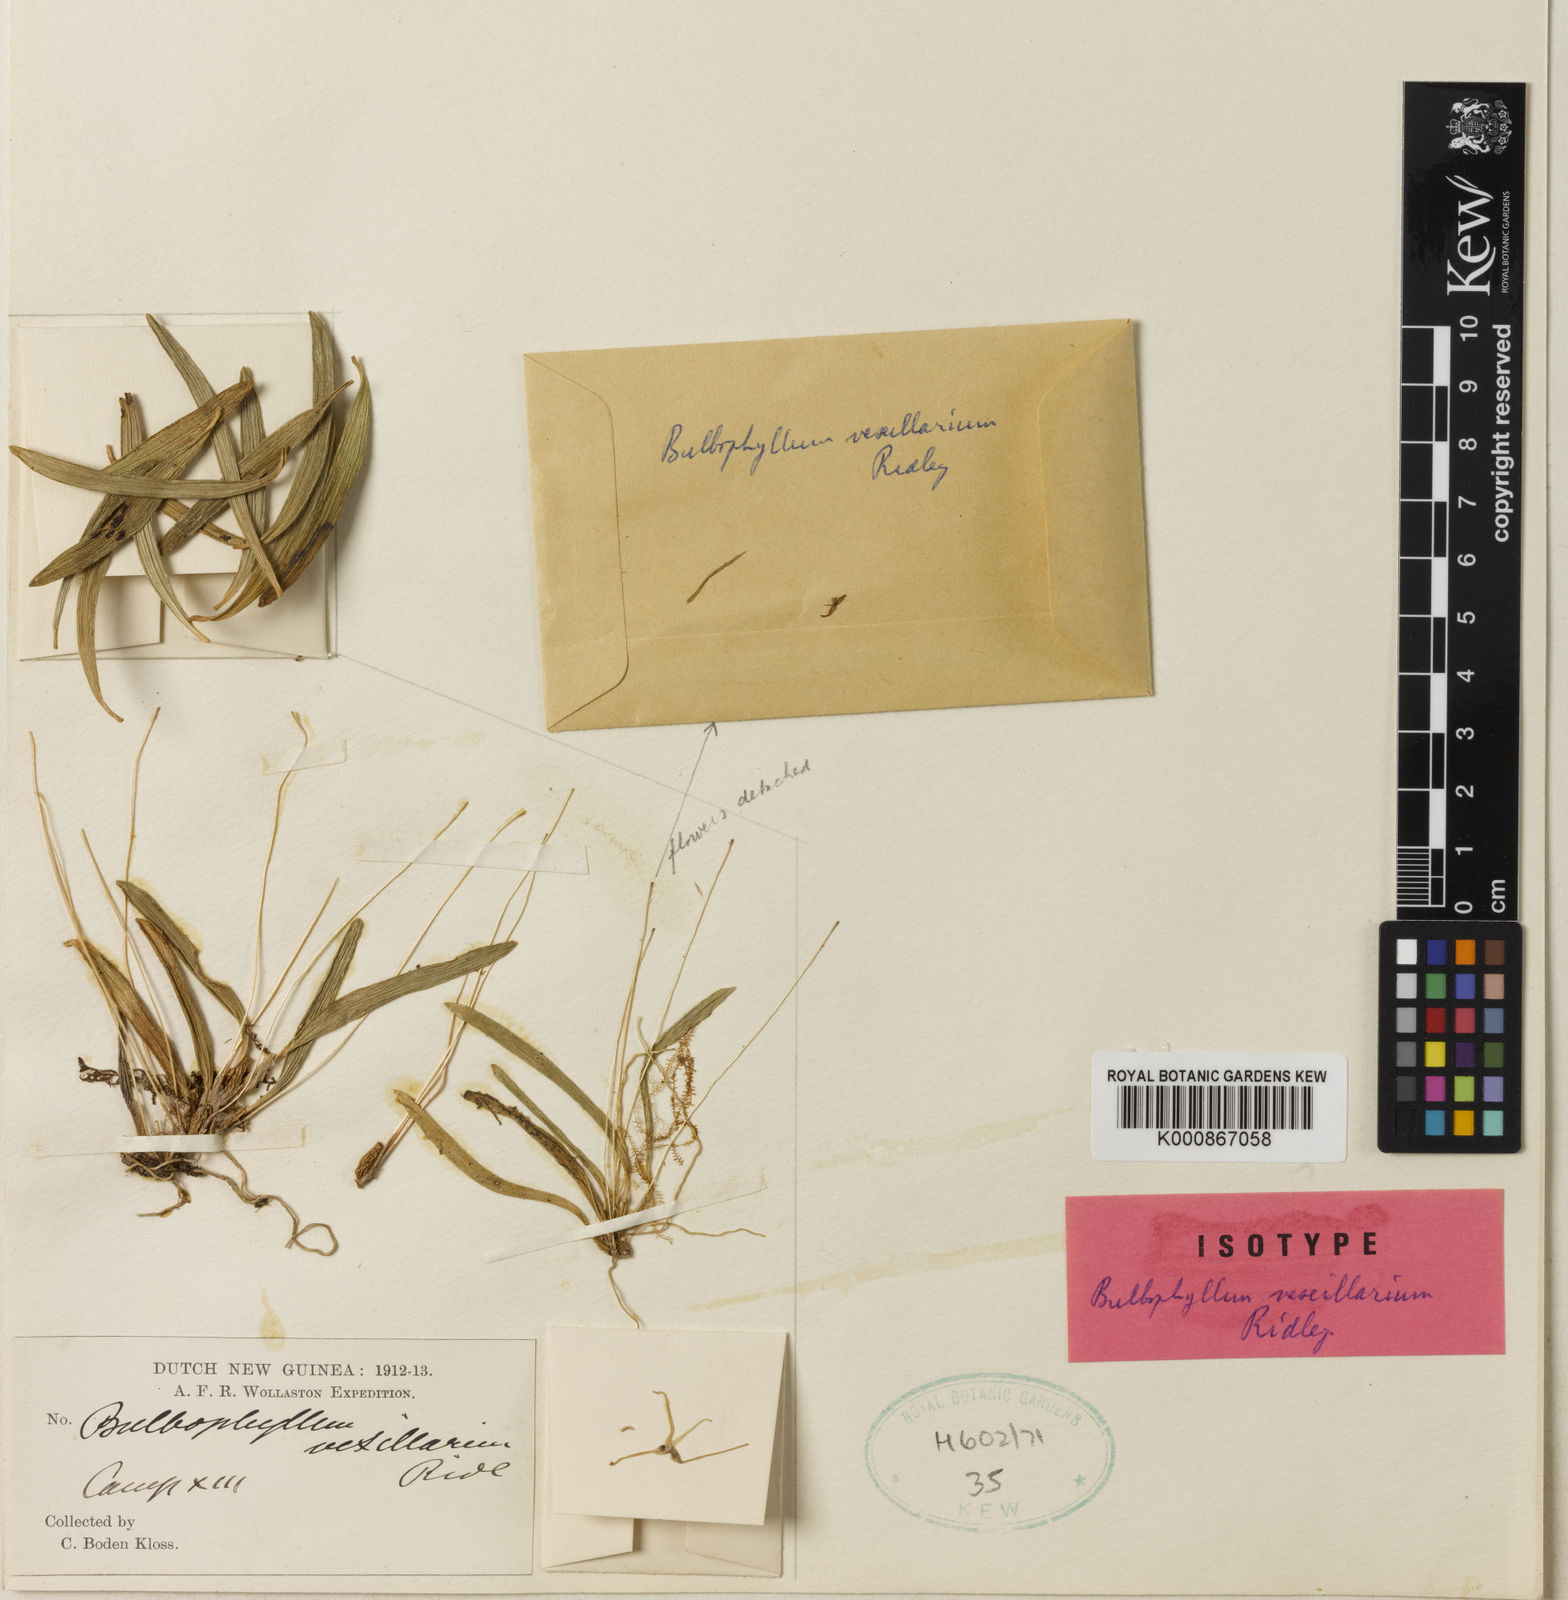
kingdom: Plantae
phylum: Tracheophyta
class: Liliopsida
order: Asparagales
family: Orchidaceae
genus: Bulbophyllum
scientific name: Bulbophyllum vexillarium
